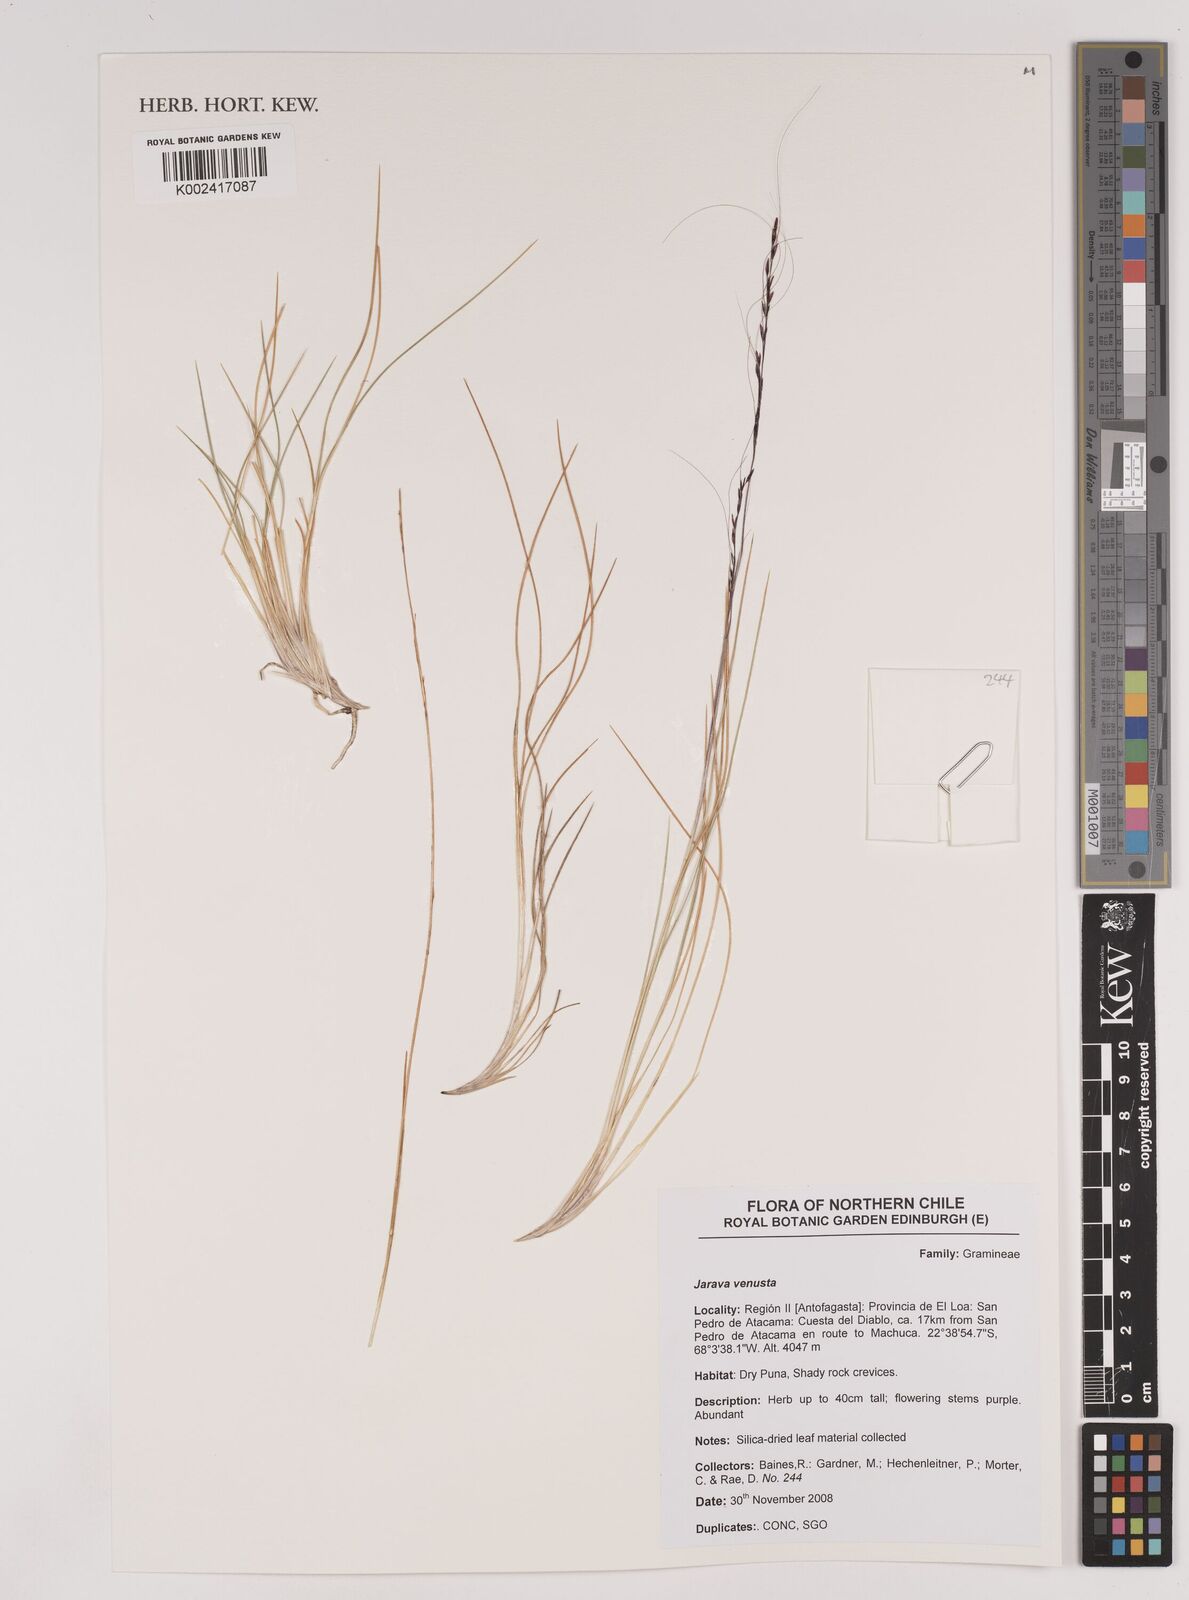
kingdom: Plantae
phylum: Tracheophyta
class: Liliopsida
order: Poales
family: Poaceae
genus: Pappostipa
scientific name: Pappostipa vaginata
